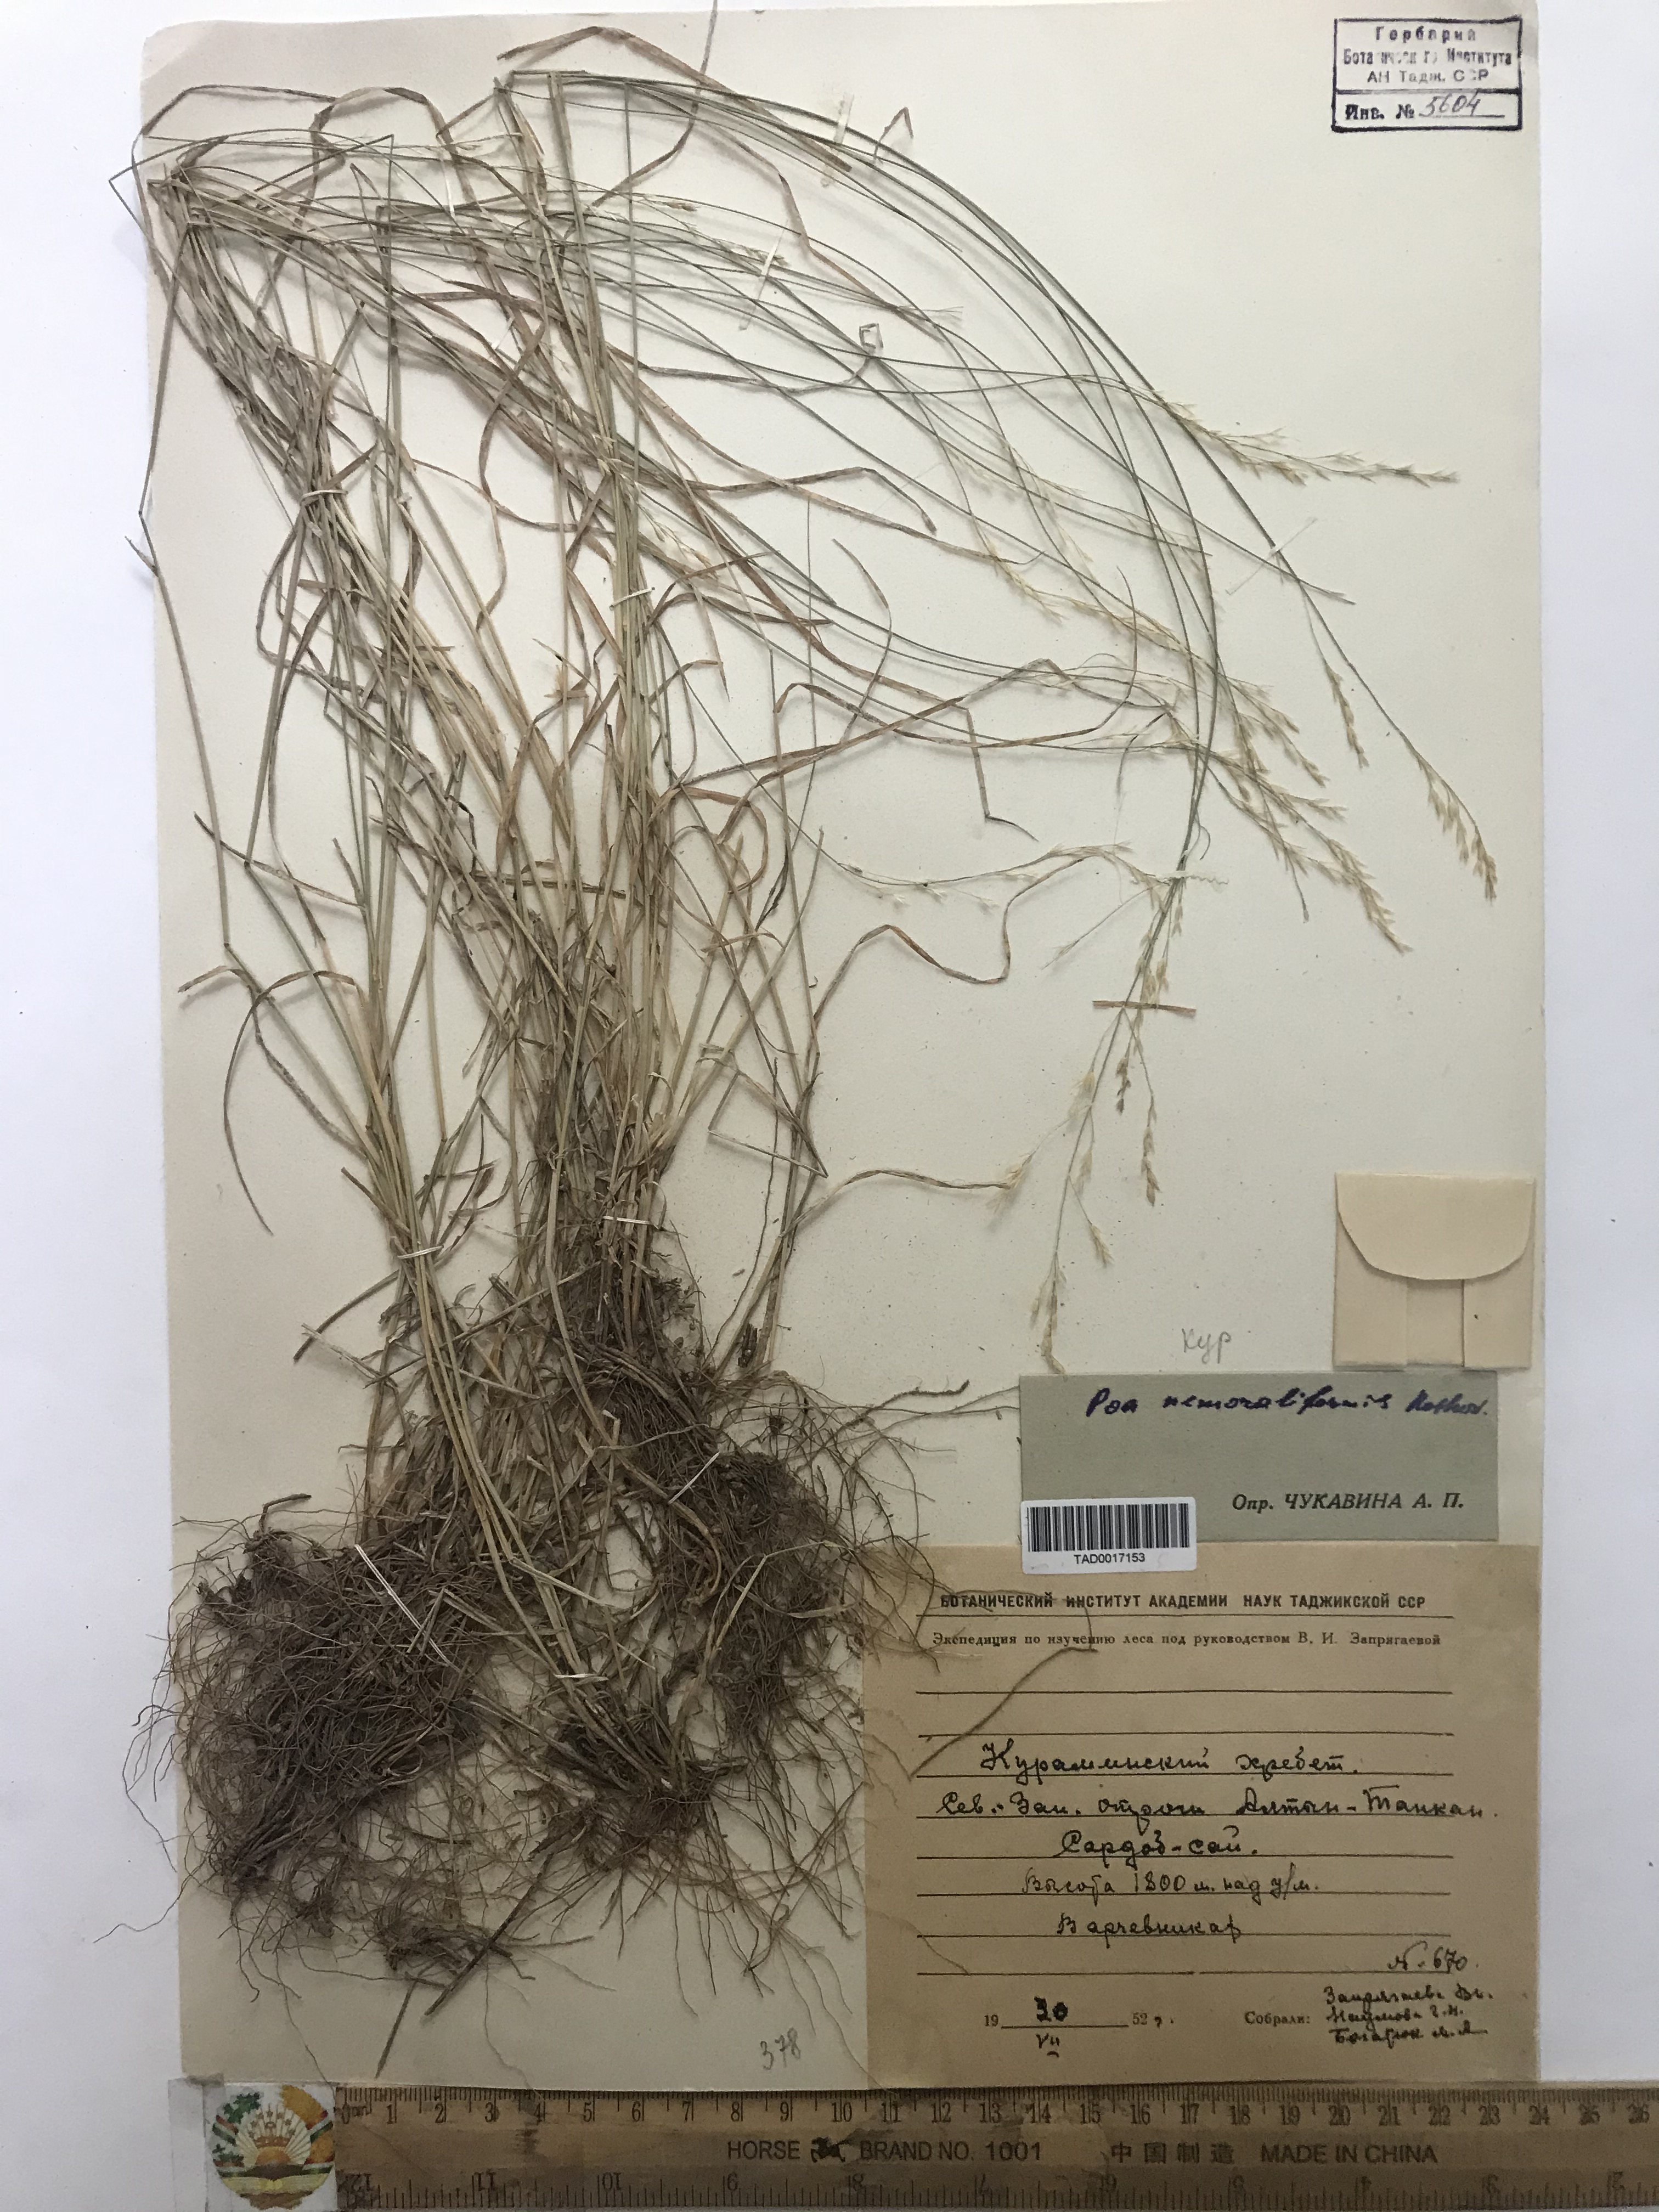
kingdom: Plantae
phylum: Tracheophyta
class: Liliopsida
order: Poales
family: Poaceae
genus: Poa
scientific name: Poa urssulensis
